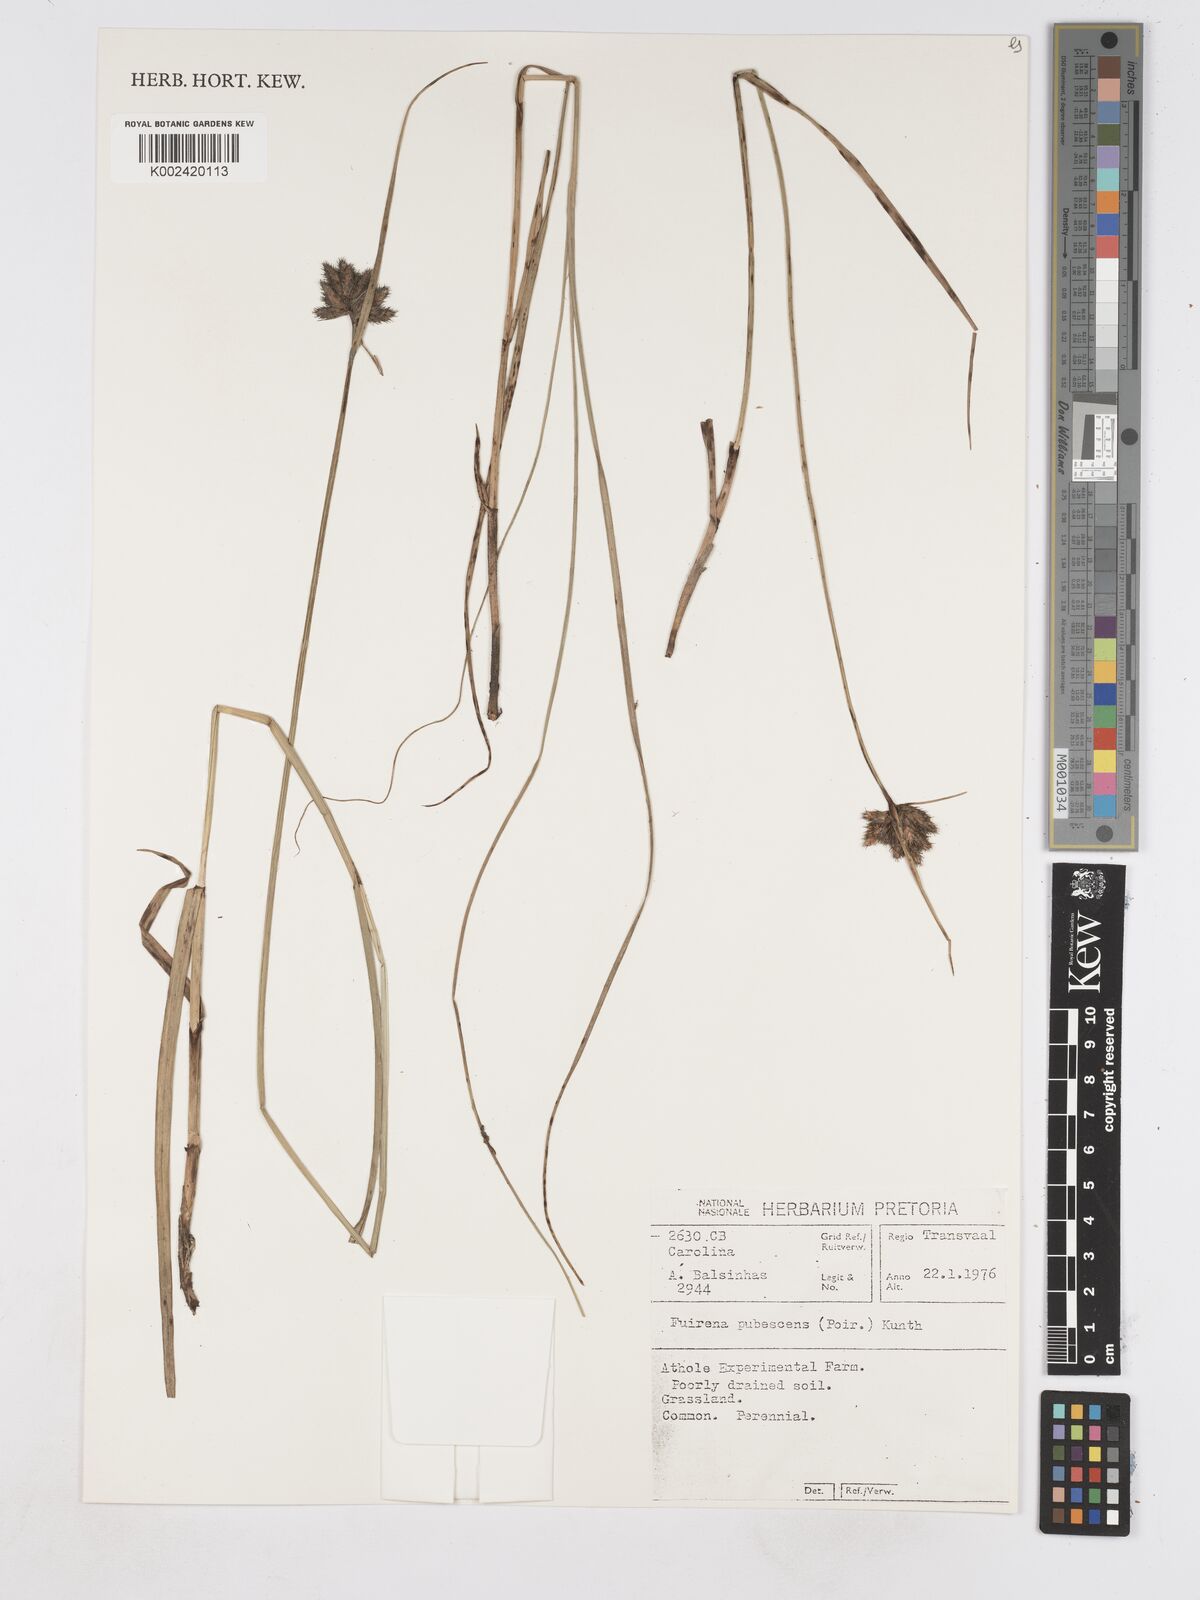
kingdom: Plantae
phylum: Tracheophyta
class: Liliopsida
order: Poales
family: Cyperaceae
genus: Fuirena
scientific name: Fuirena pubescens
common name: Hairy sedge
